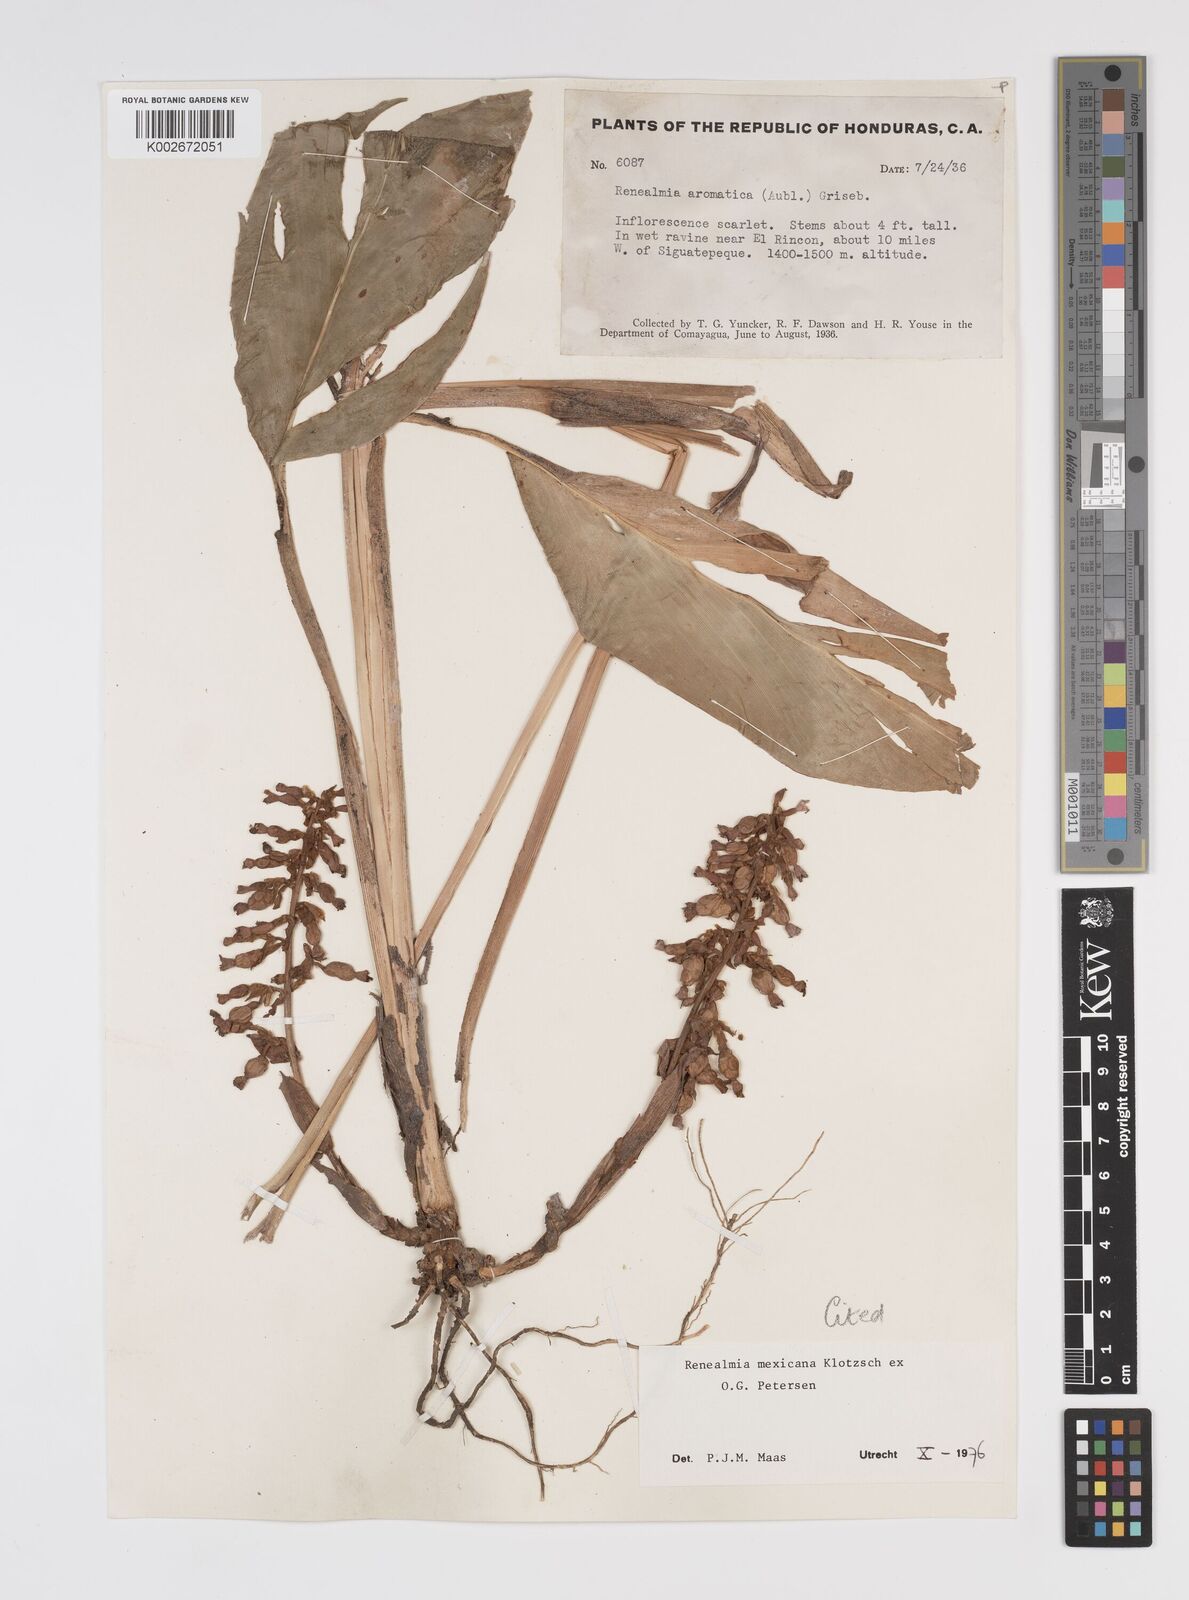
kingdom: Plantae
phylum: Tracheophyta
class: Liliopsida
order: Zingiberales
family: Zingiberaceae
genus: Renealmia
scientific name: Renealmia mexicana
